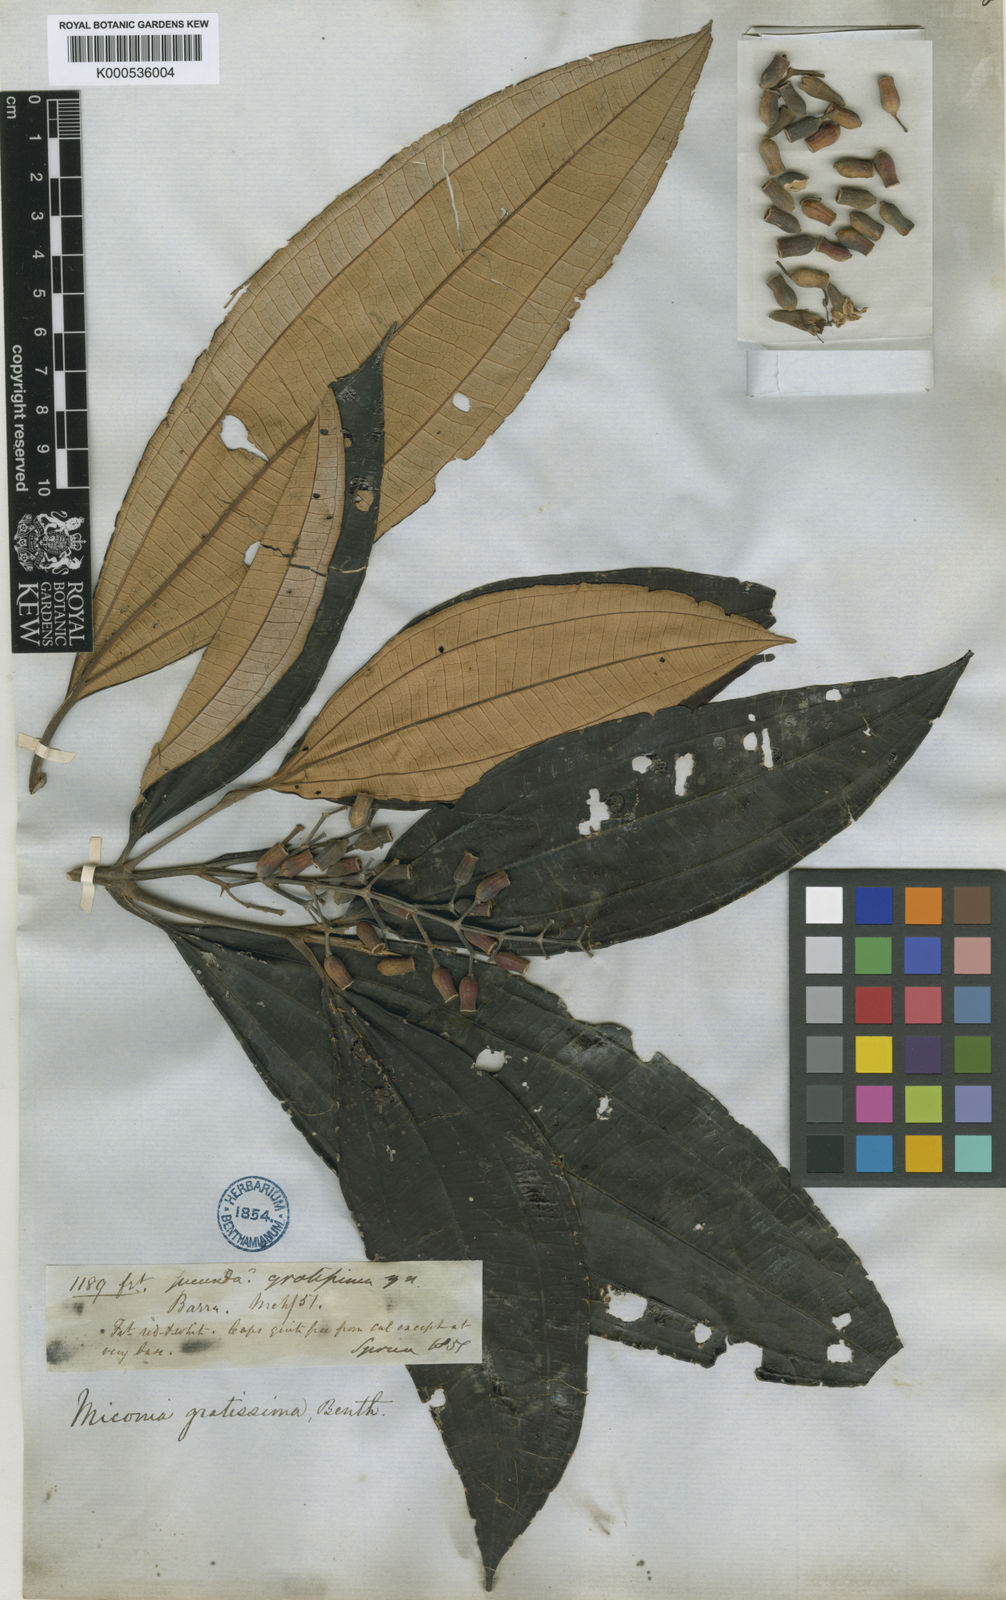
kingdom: Plantae
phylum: Tracheophyta
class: Magnoliopsida
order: Myrtales
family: Melastomataceae
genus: Miconia
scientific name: Miconia gratissima
